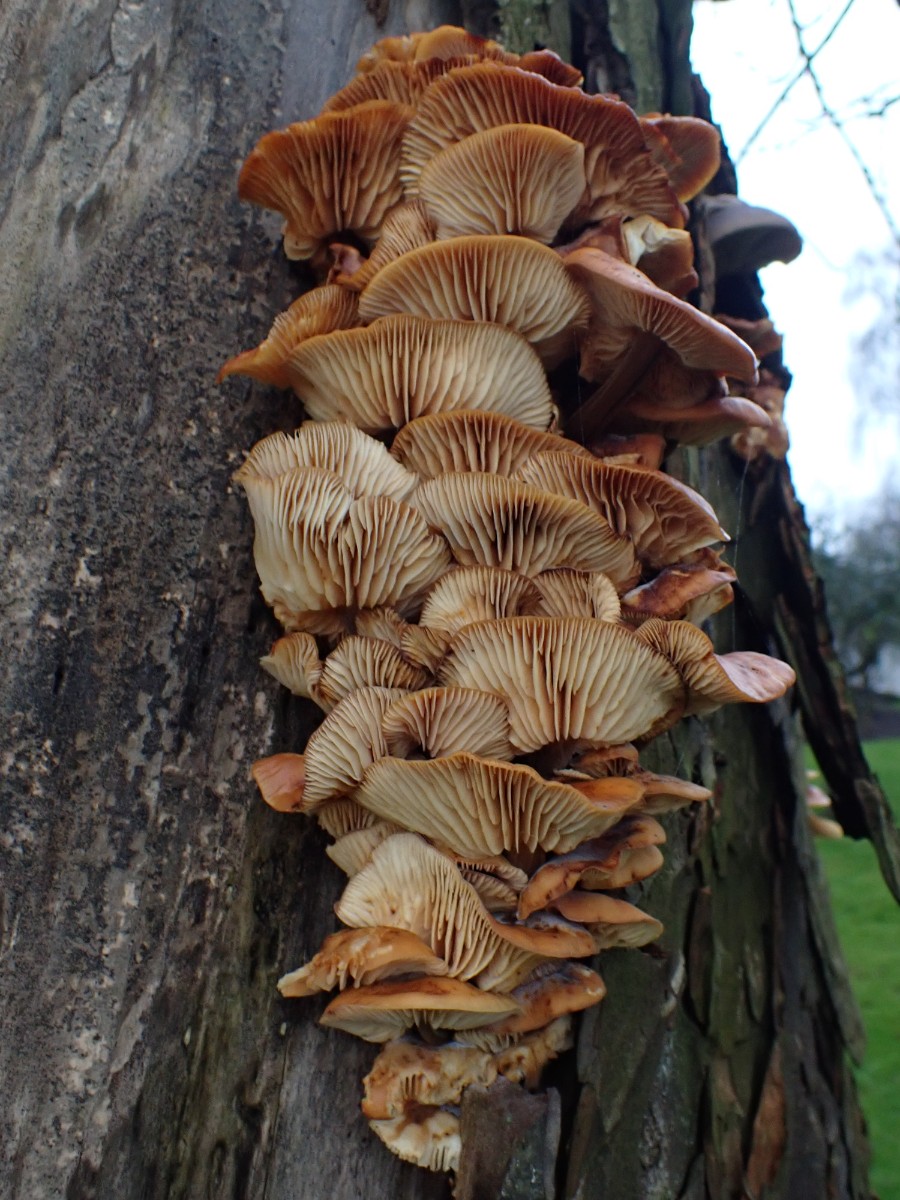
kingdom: Fungi
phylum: Basidiomycota
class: Agaricomycetes
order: Agaricales
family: Physalacriaceae
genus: Flammulina
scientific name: Flammulina velutipes
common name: gul fløjlsfod
